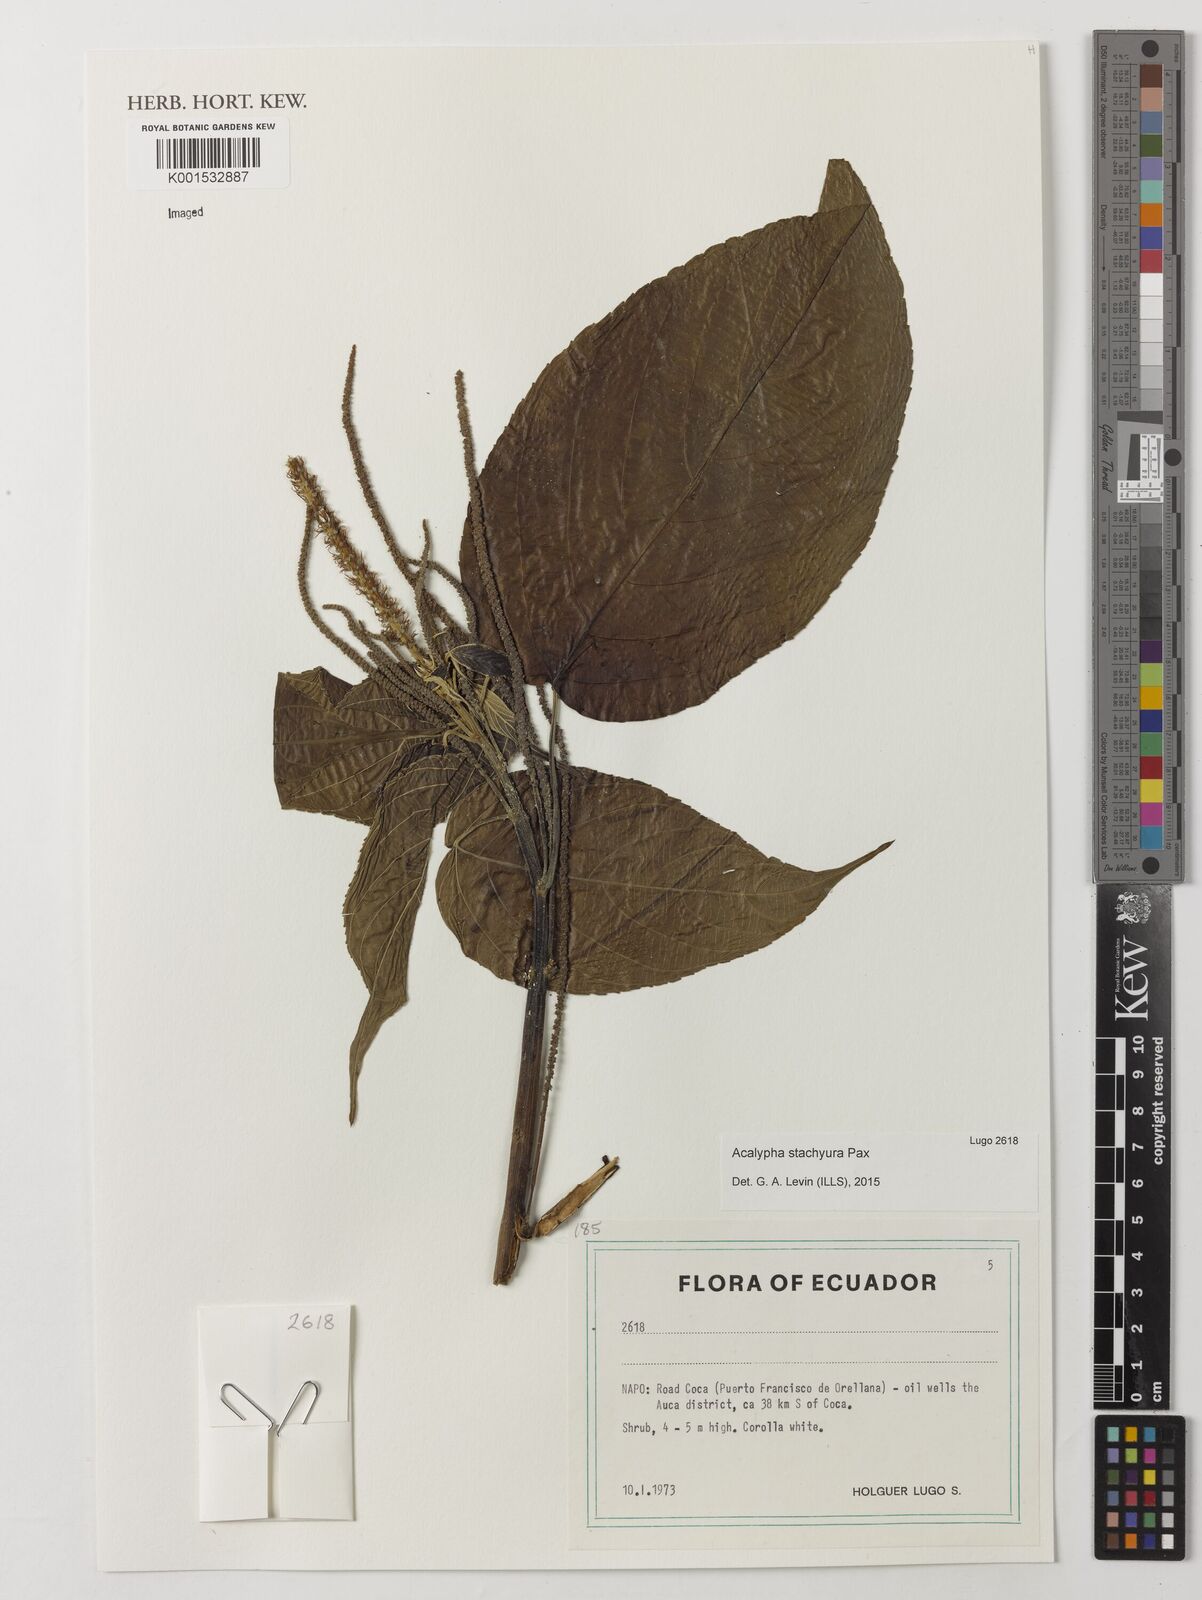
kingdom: Plantae
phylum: Tracheophyta
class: Magnoliopsida
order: Malpighiales
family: Euphorbiaceae
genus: Acalypha
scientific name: Acalypha stachyura
